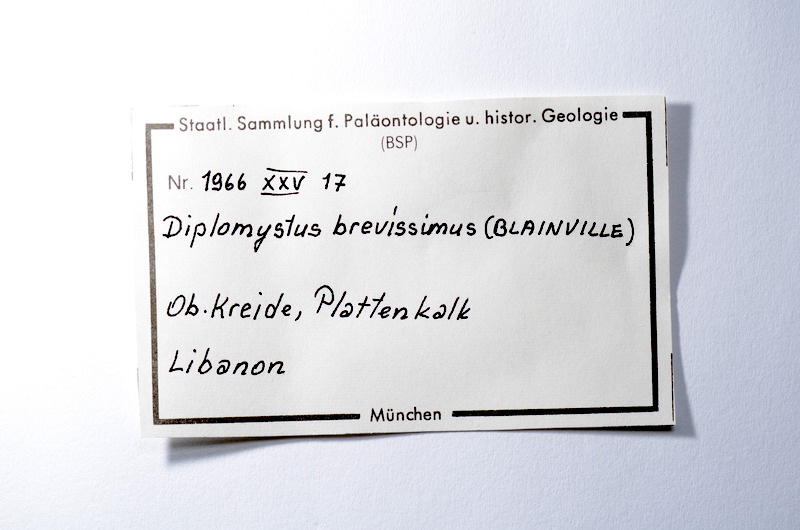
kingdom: Animalia
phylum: Chordata
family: Armigatidae
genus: Armigatus
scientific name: Armigatus Clupea brevissima
